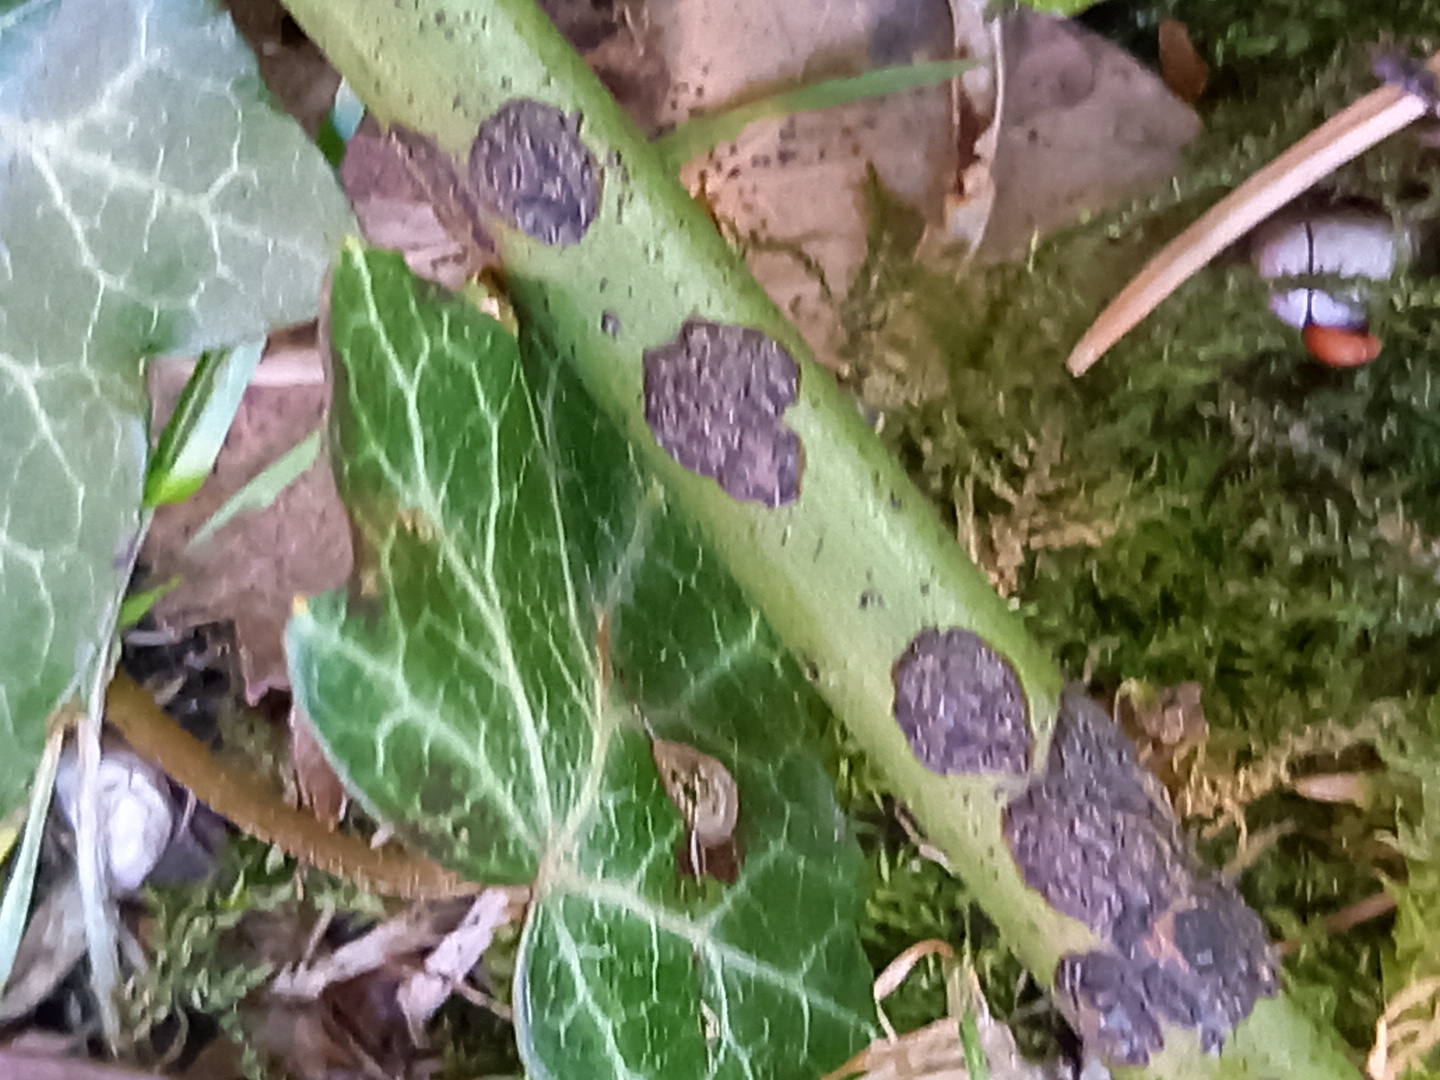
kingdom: Fungi
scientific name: Fungi
